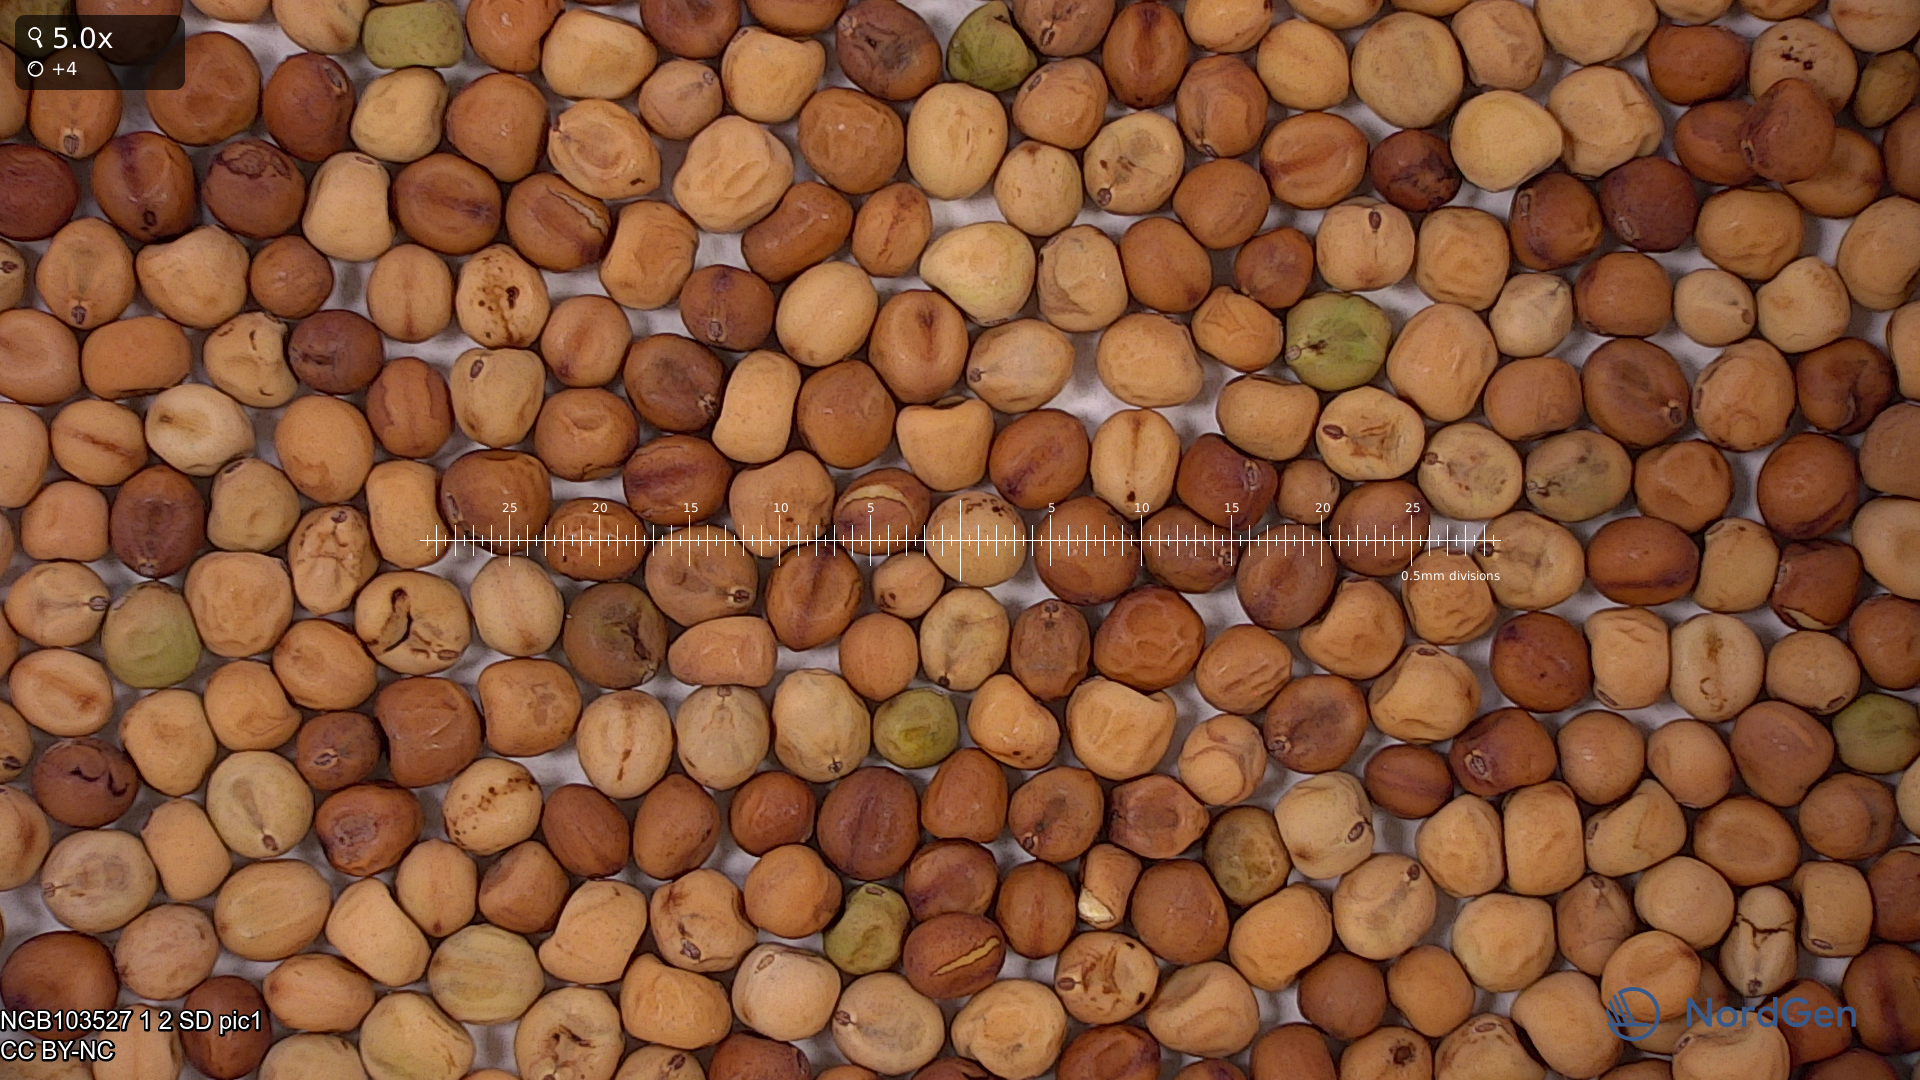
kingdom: Plantae
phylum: Tracheophyta
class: Magnoliopsida
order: Fabales
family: Fabaceae
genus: Lathyrus
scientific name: Lathyrus oleraceus
